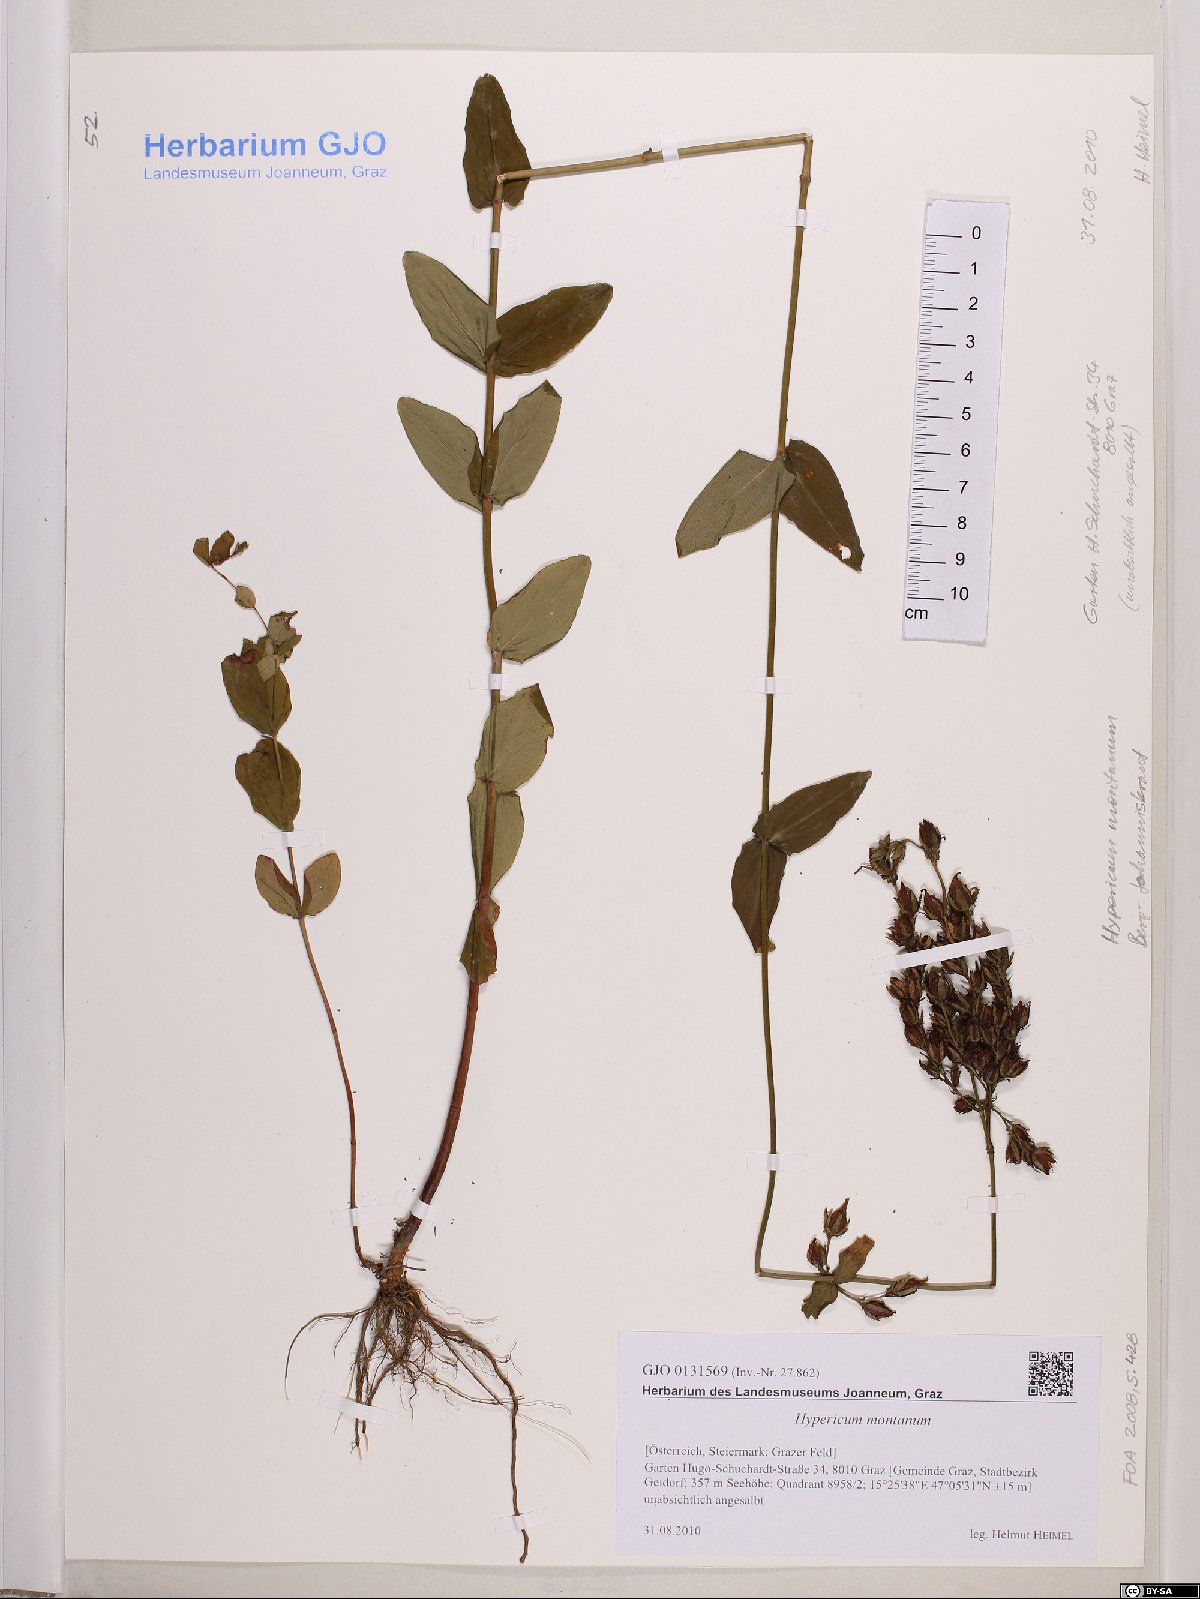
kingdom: Plantae
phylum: Tracheophyta
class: Magnoliopsida
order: Malpighiales
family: Hypericaceae
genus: Hypericum
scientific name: Hypericum montanum
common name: Pale st. john's-wort
